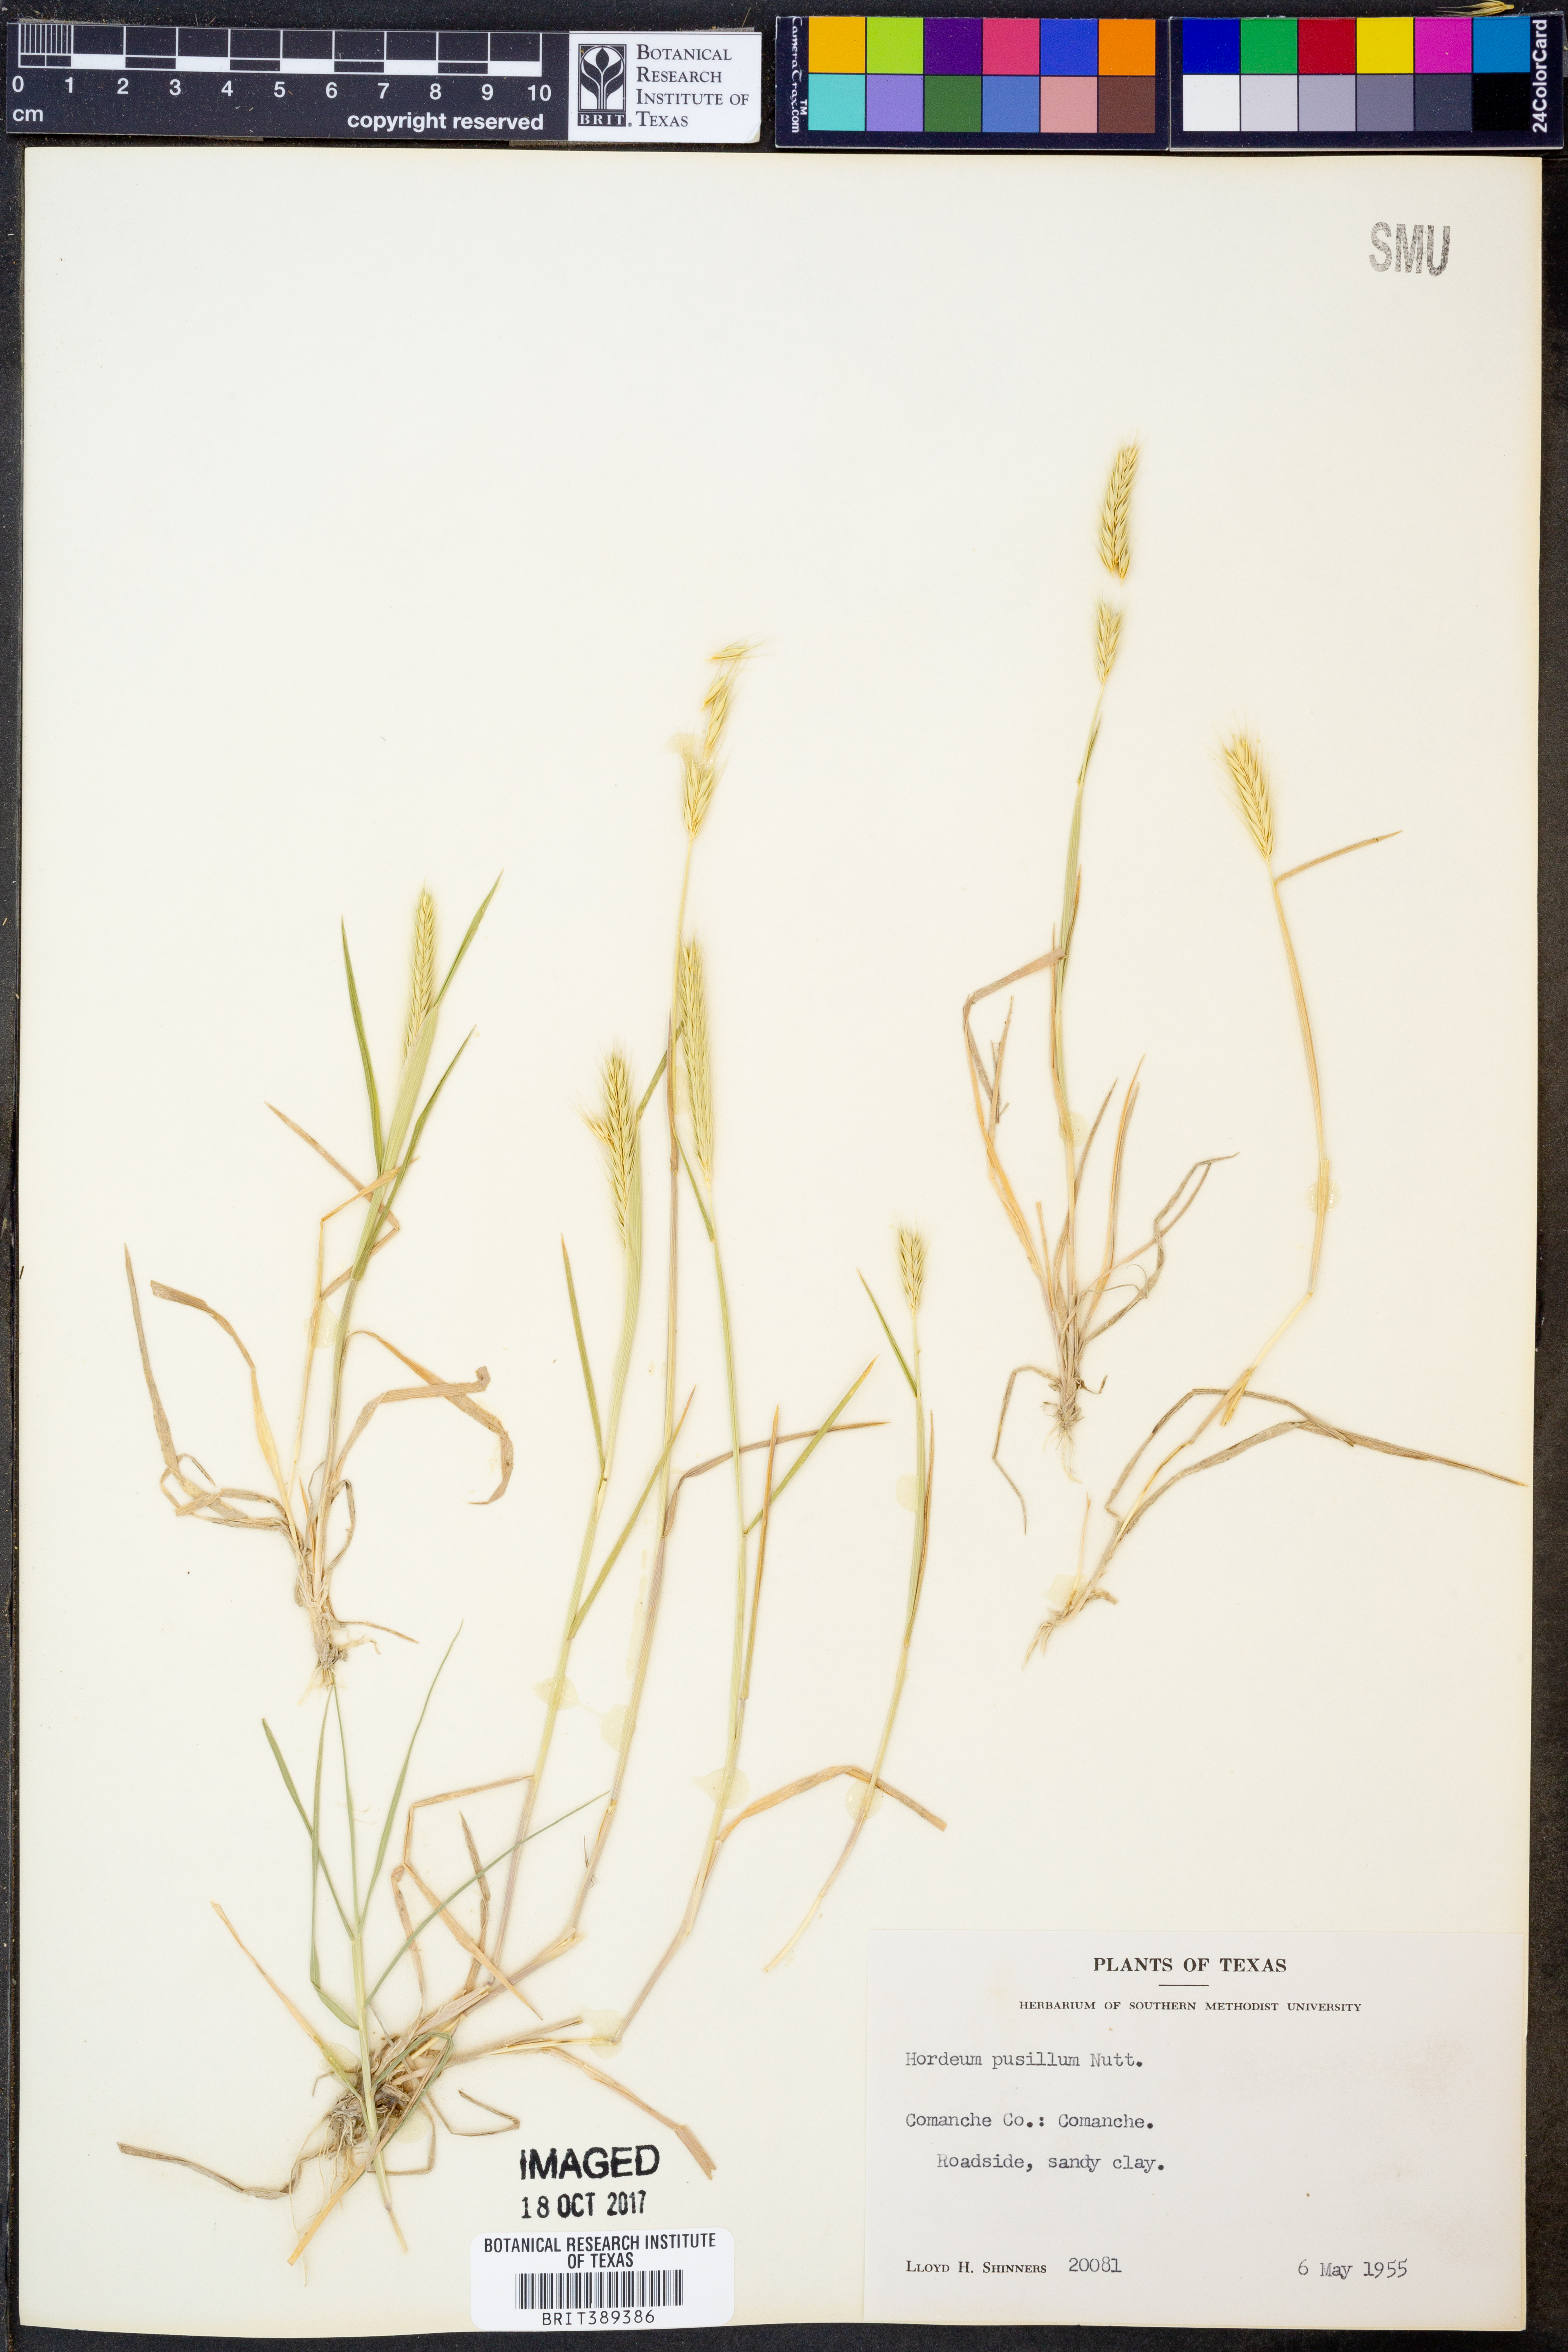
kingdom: Plantae
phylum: Tracheophyta
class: Liliopsida
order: Poales
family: Poaceae
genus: Hordeum
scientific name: Hordeum pusillum
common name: Little barley
